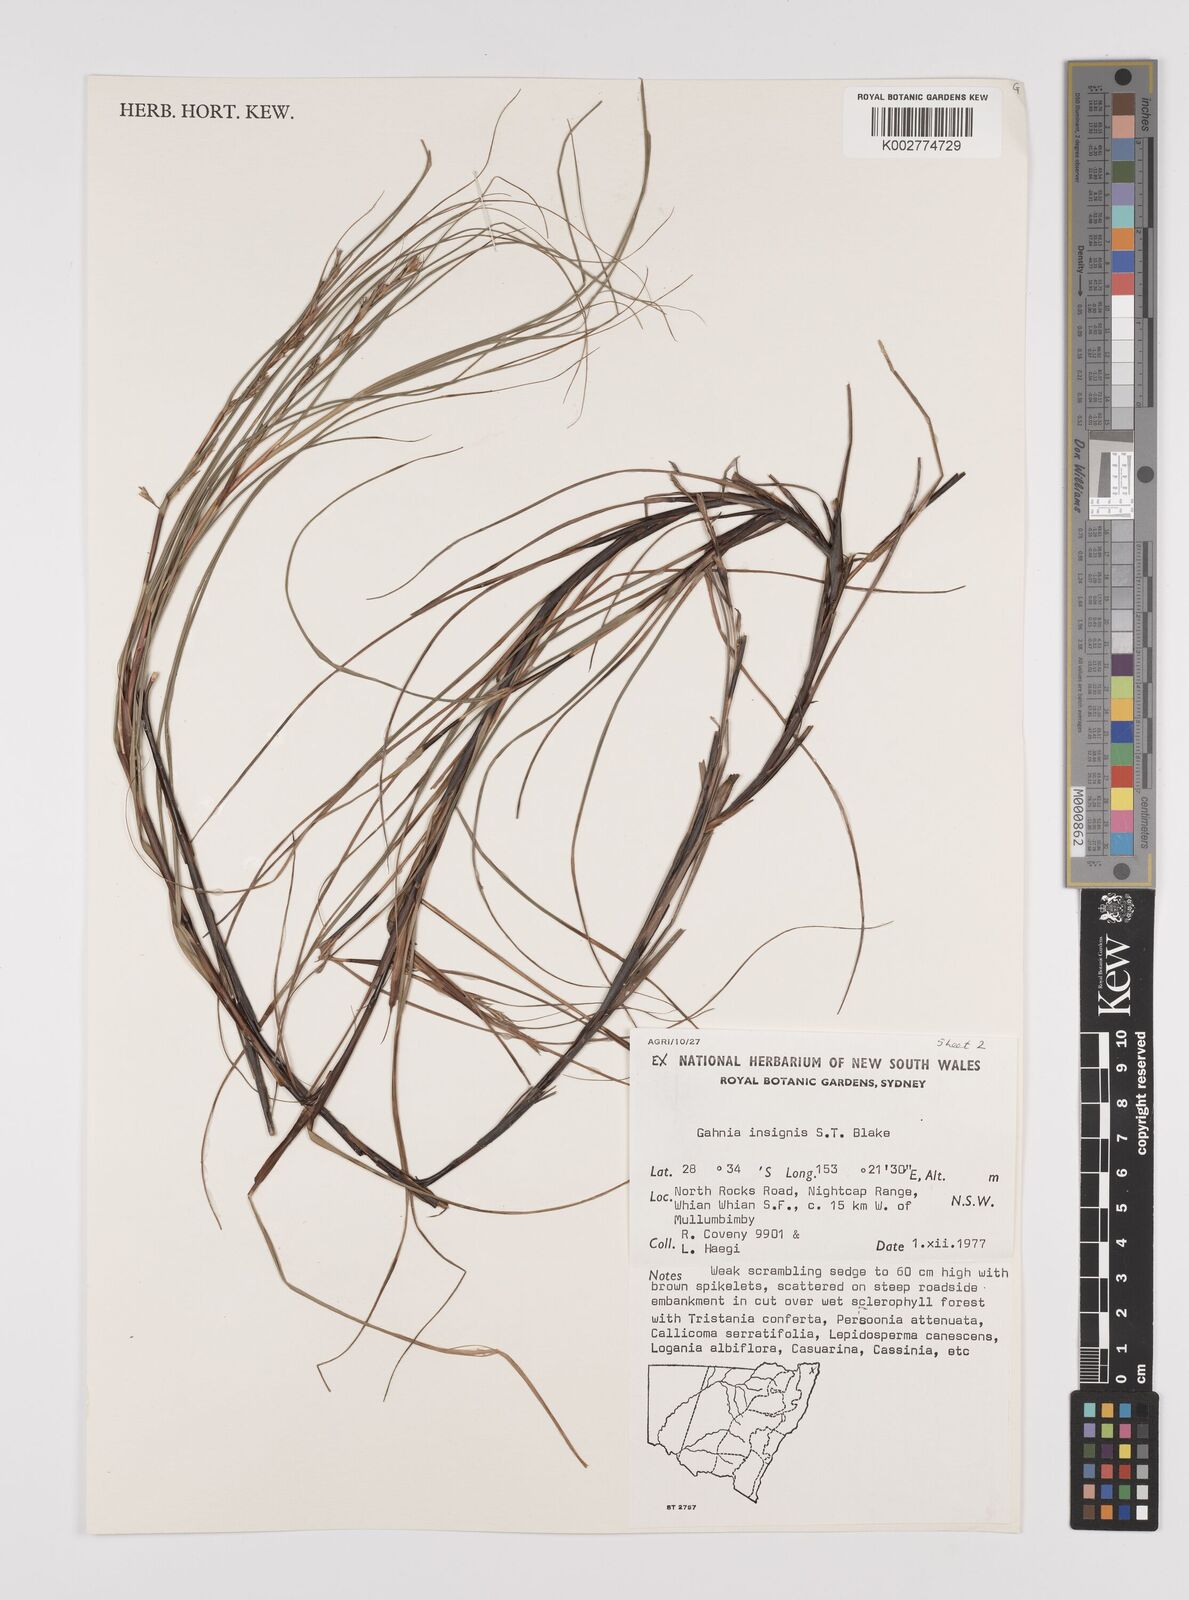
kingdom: Plantae
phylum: Tracheophyta
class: Liliopsida
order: Poales
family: Cyperaceae
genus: Gahnia
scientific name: Gahnia insignis
